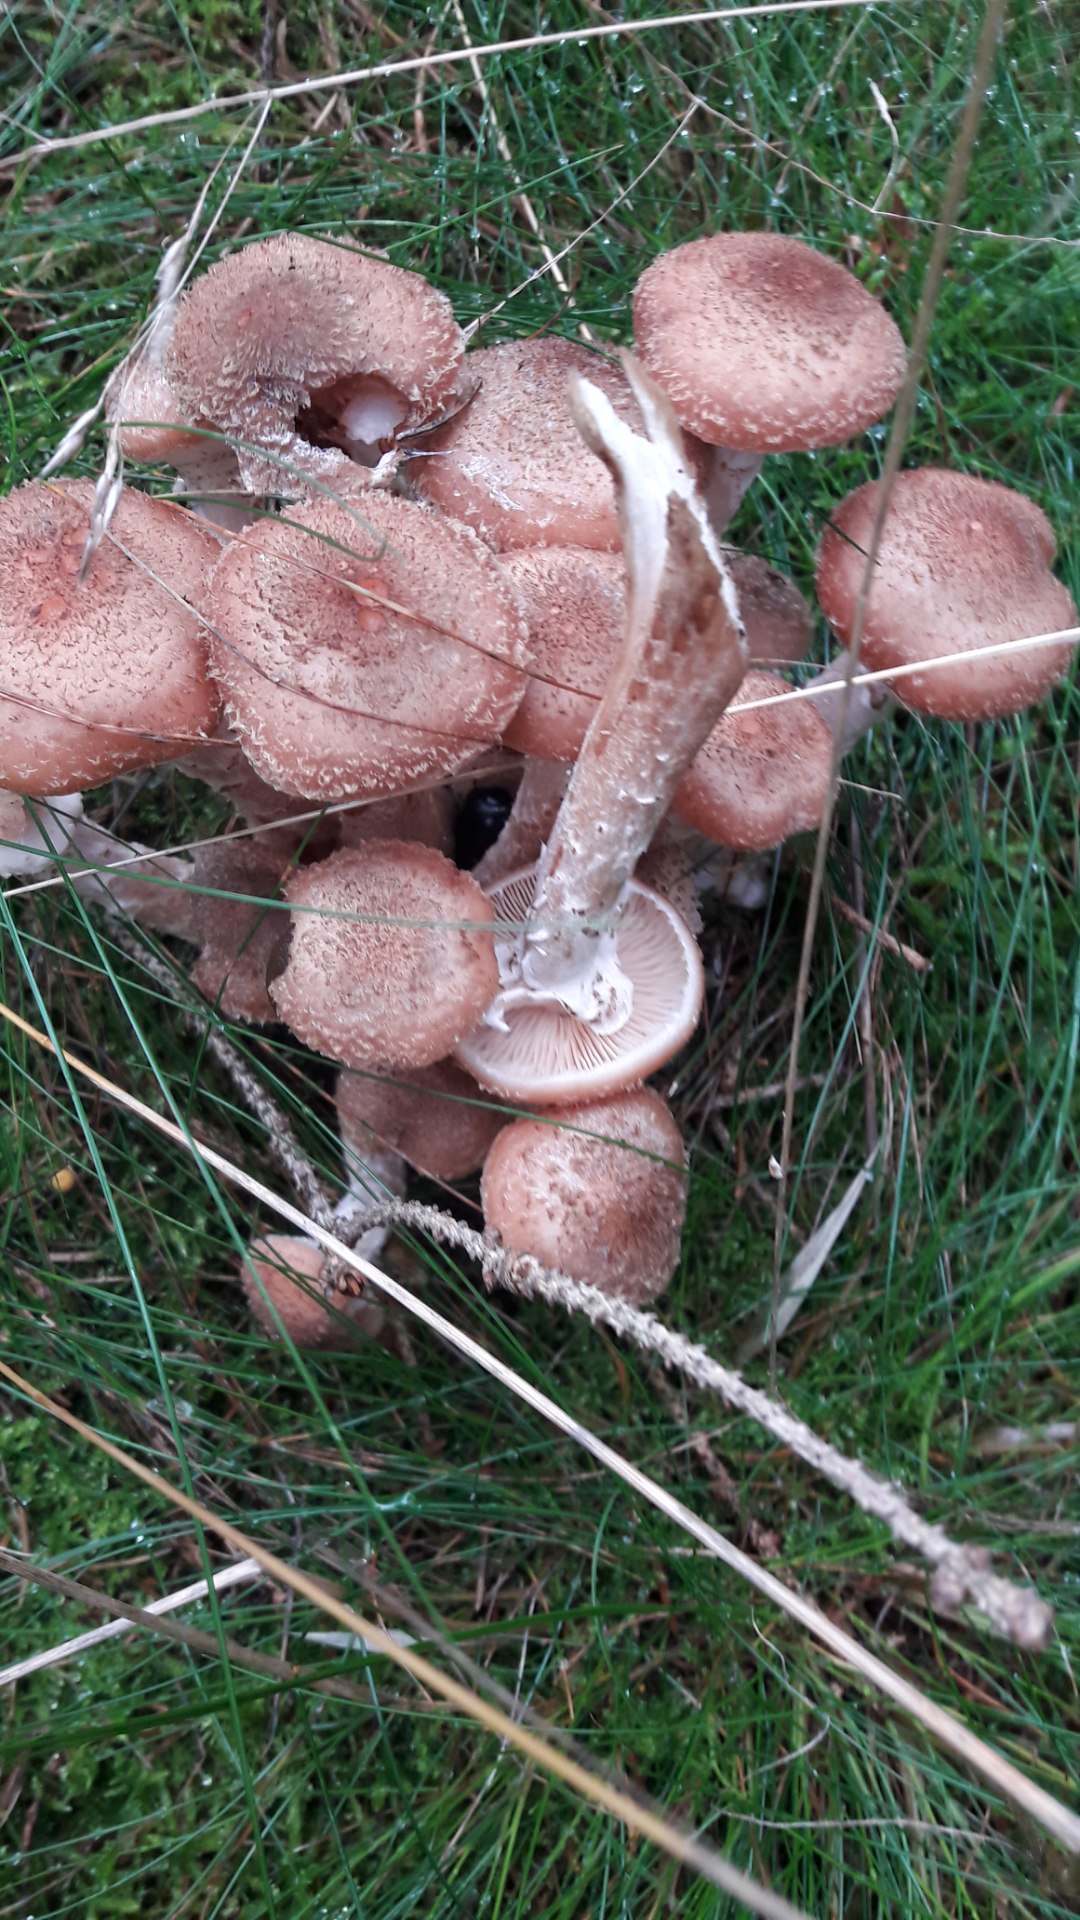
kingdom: Fungi
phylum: Basidiomycota
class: Agaricomycetes
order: Agaricales
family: Physalacriaceae
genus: Armillaria
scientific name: Armillaria ostoyae
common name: mørk honningsvamp
